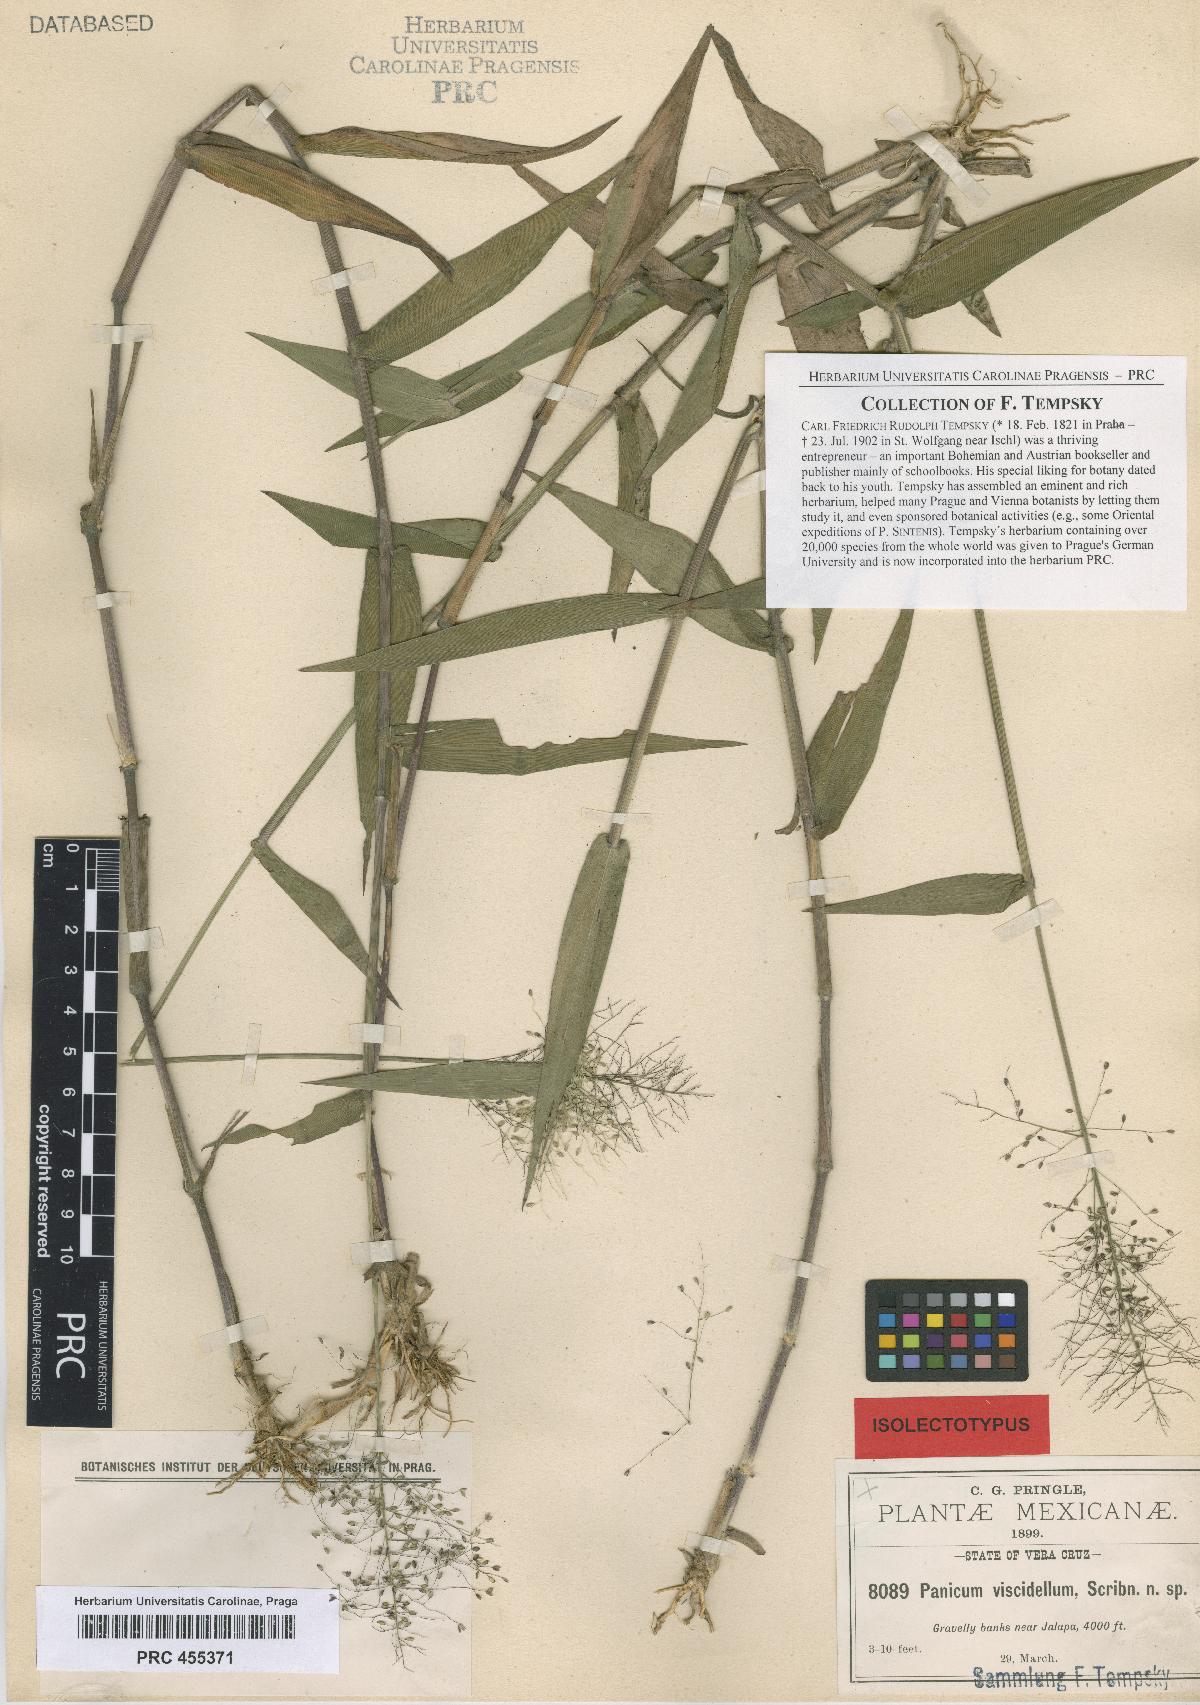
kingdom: Plantae
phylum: Tracheophyta
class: Liliopsida
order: Poales
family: Poaceae
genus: Dichanthelium
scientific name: Dichanthelium viscidellum
